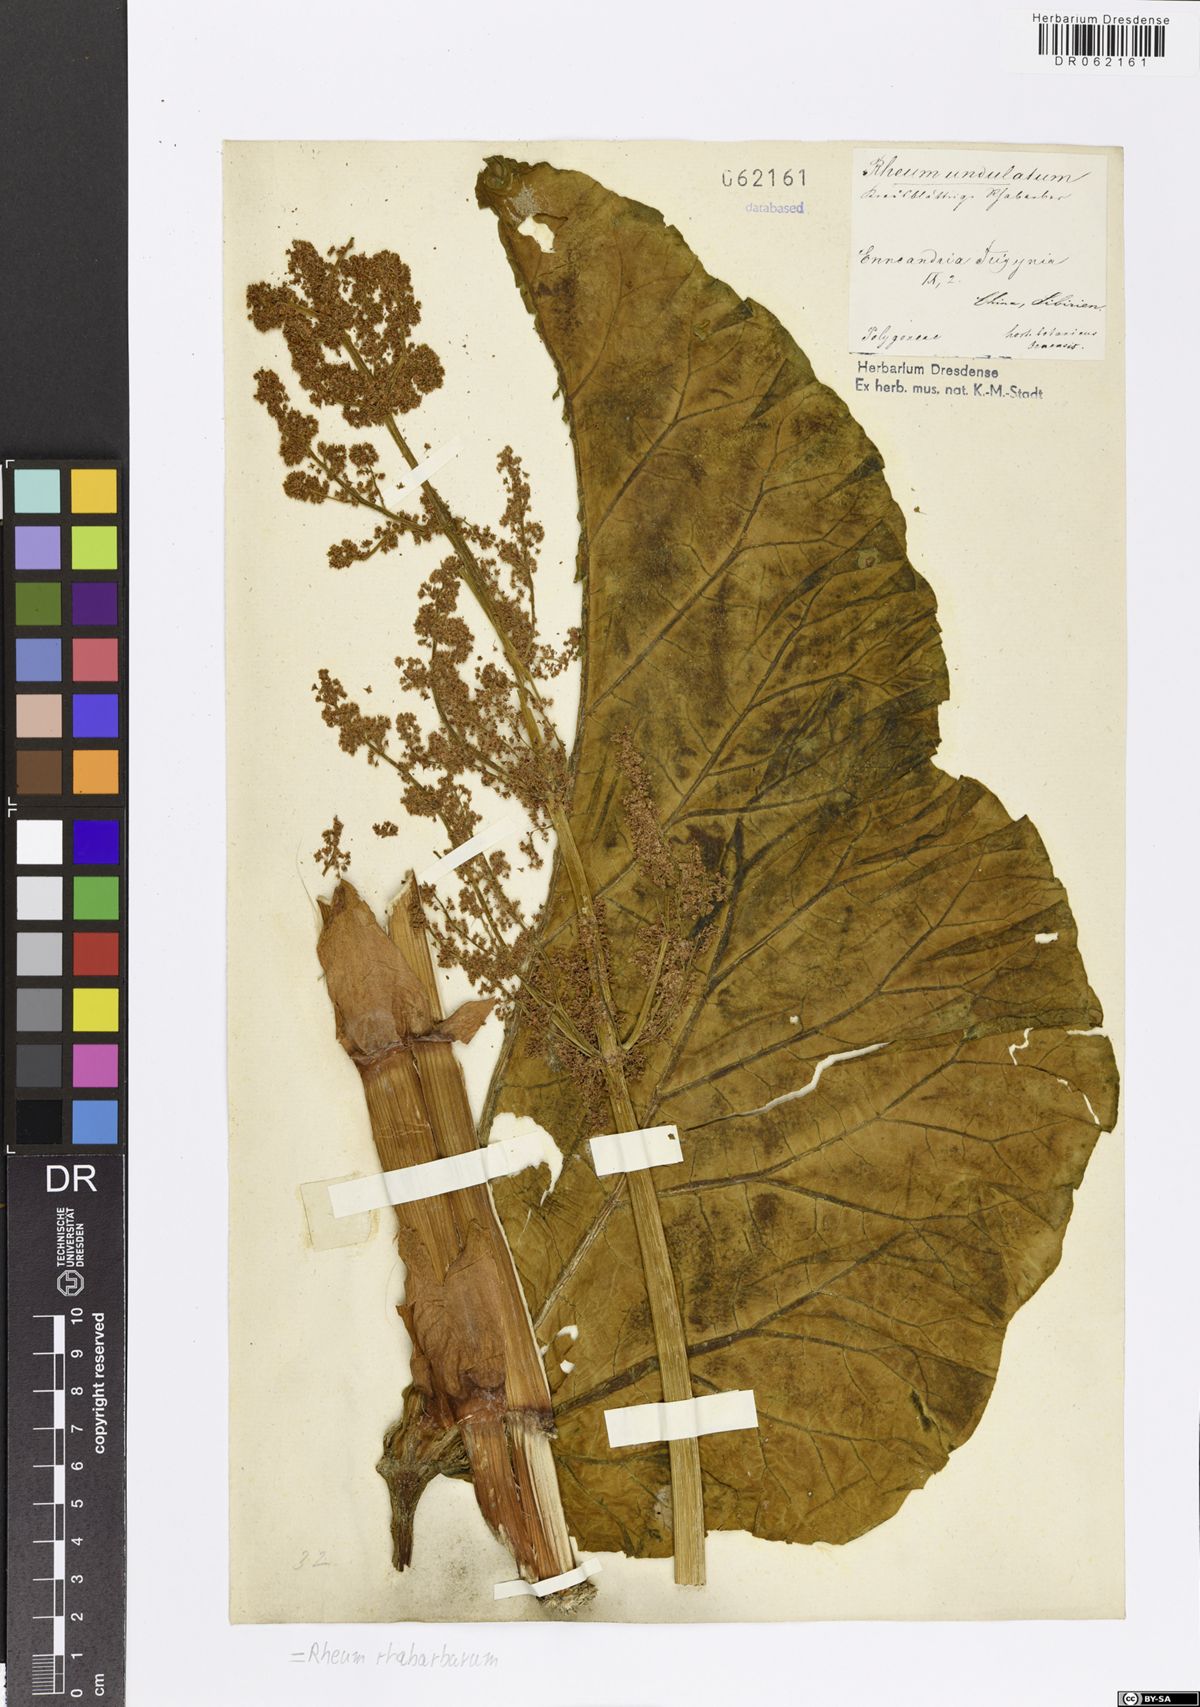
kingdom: Plantae
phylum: Tracheophyta
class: Magnoliopsida
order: Caryophyllales
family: Polygonaceae
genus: Rheum
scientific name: Rheum rhabarbarum
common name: Garden rhubarb
